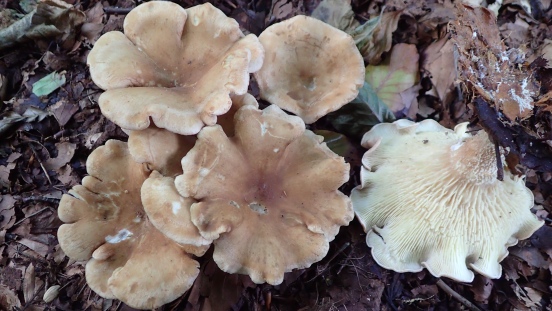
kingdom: Fungi
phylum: Basidiomycota
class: Agaricomycetes
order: Agaricales
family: Tricholomataceae
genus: Paralepista
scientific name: Paralepista flaccida
